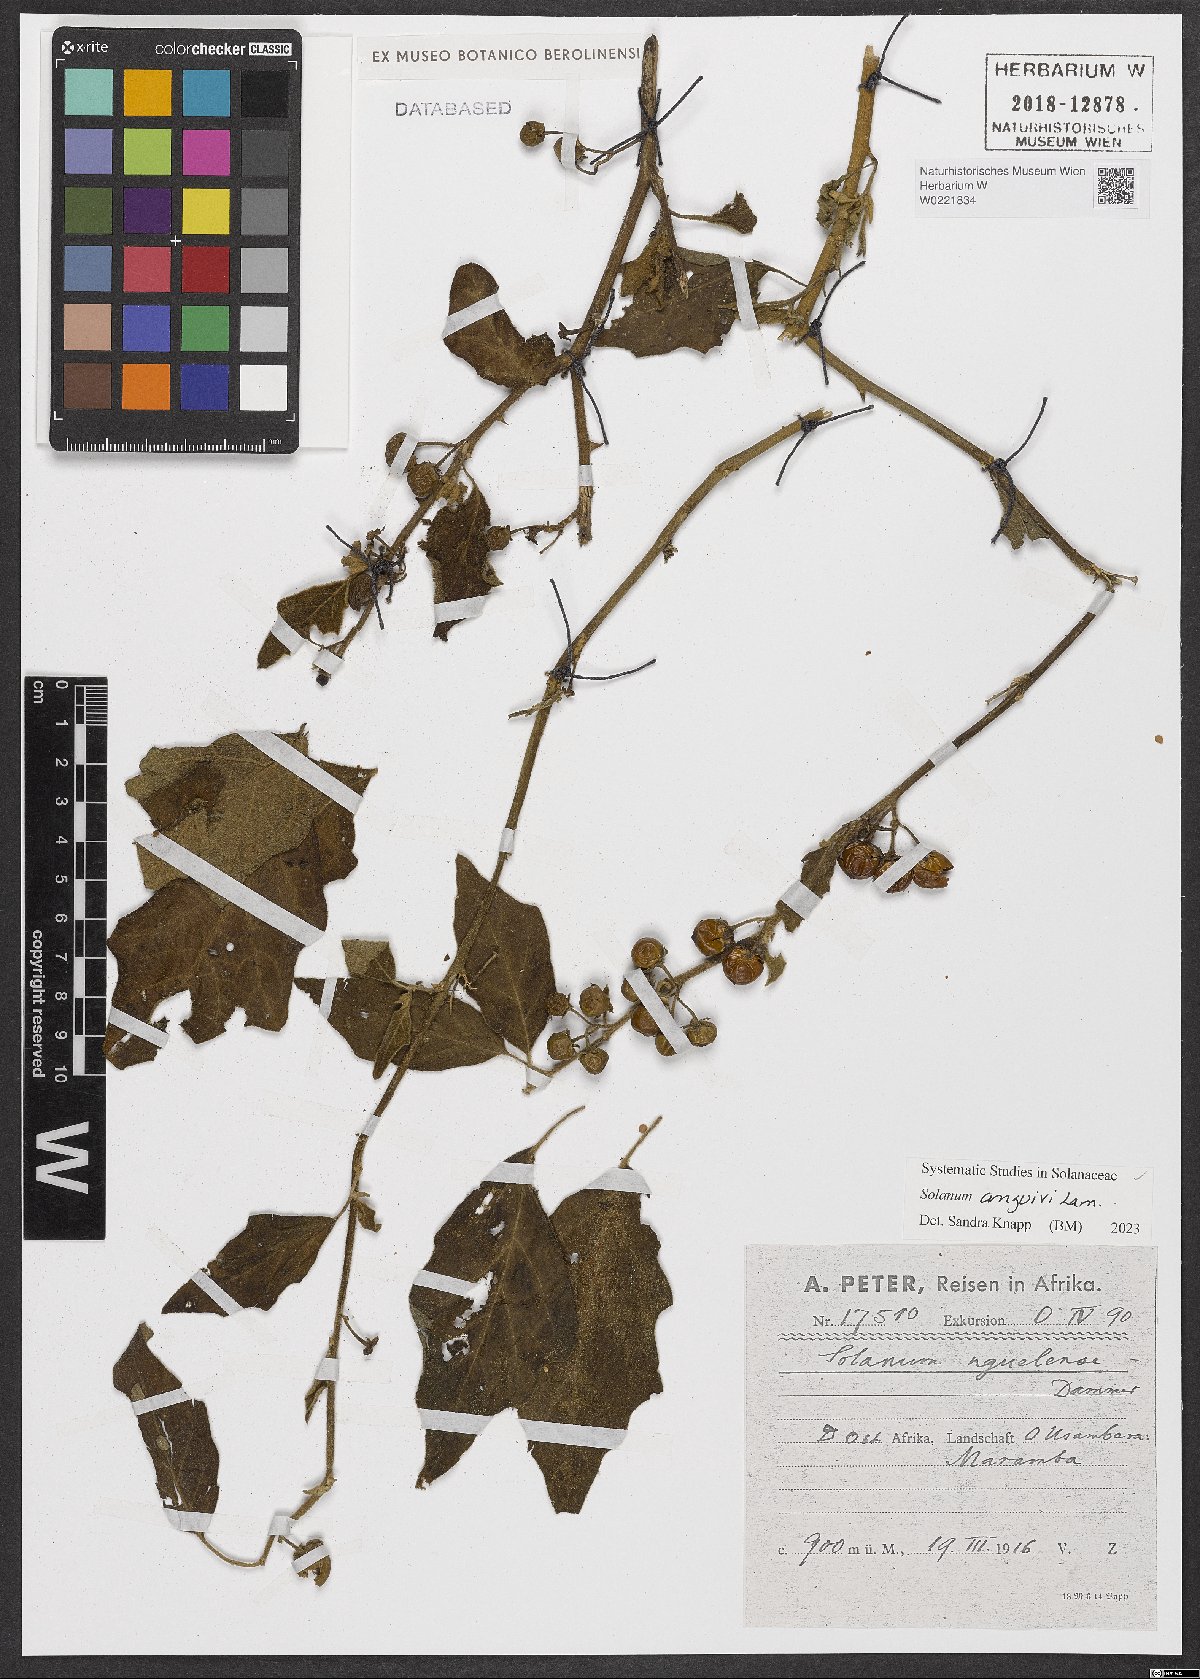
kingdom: Plantae
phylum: Tracheophyta
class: Magnoliopsida
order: Solanales
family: Solanaceae
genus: Solanum
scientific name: Solanum anguivi
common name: Forest bitterberry
